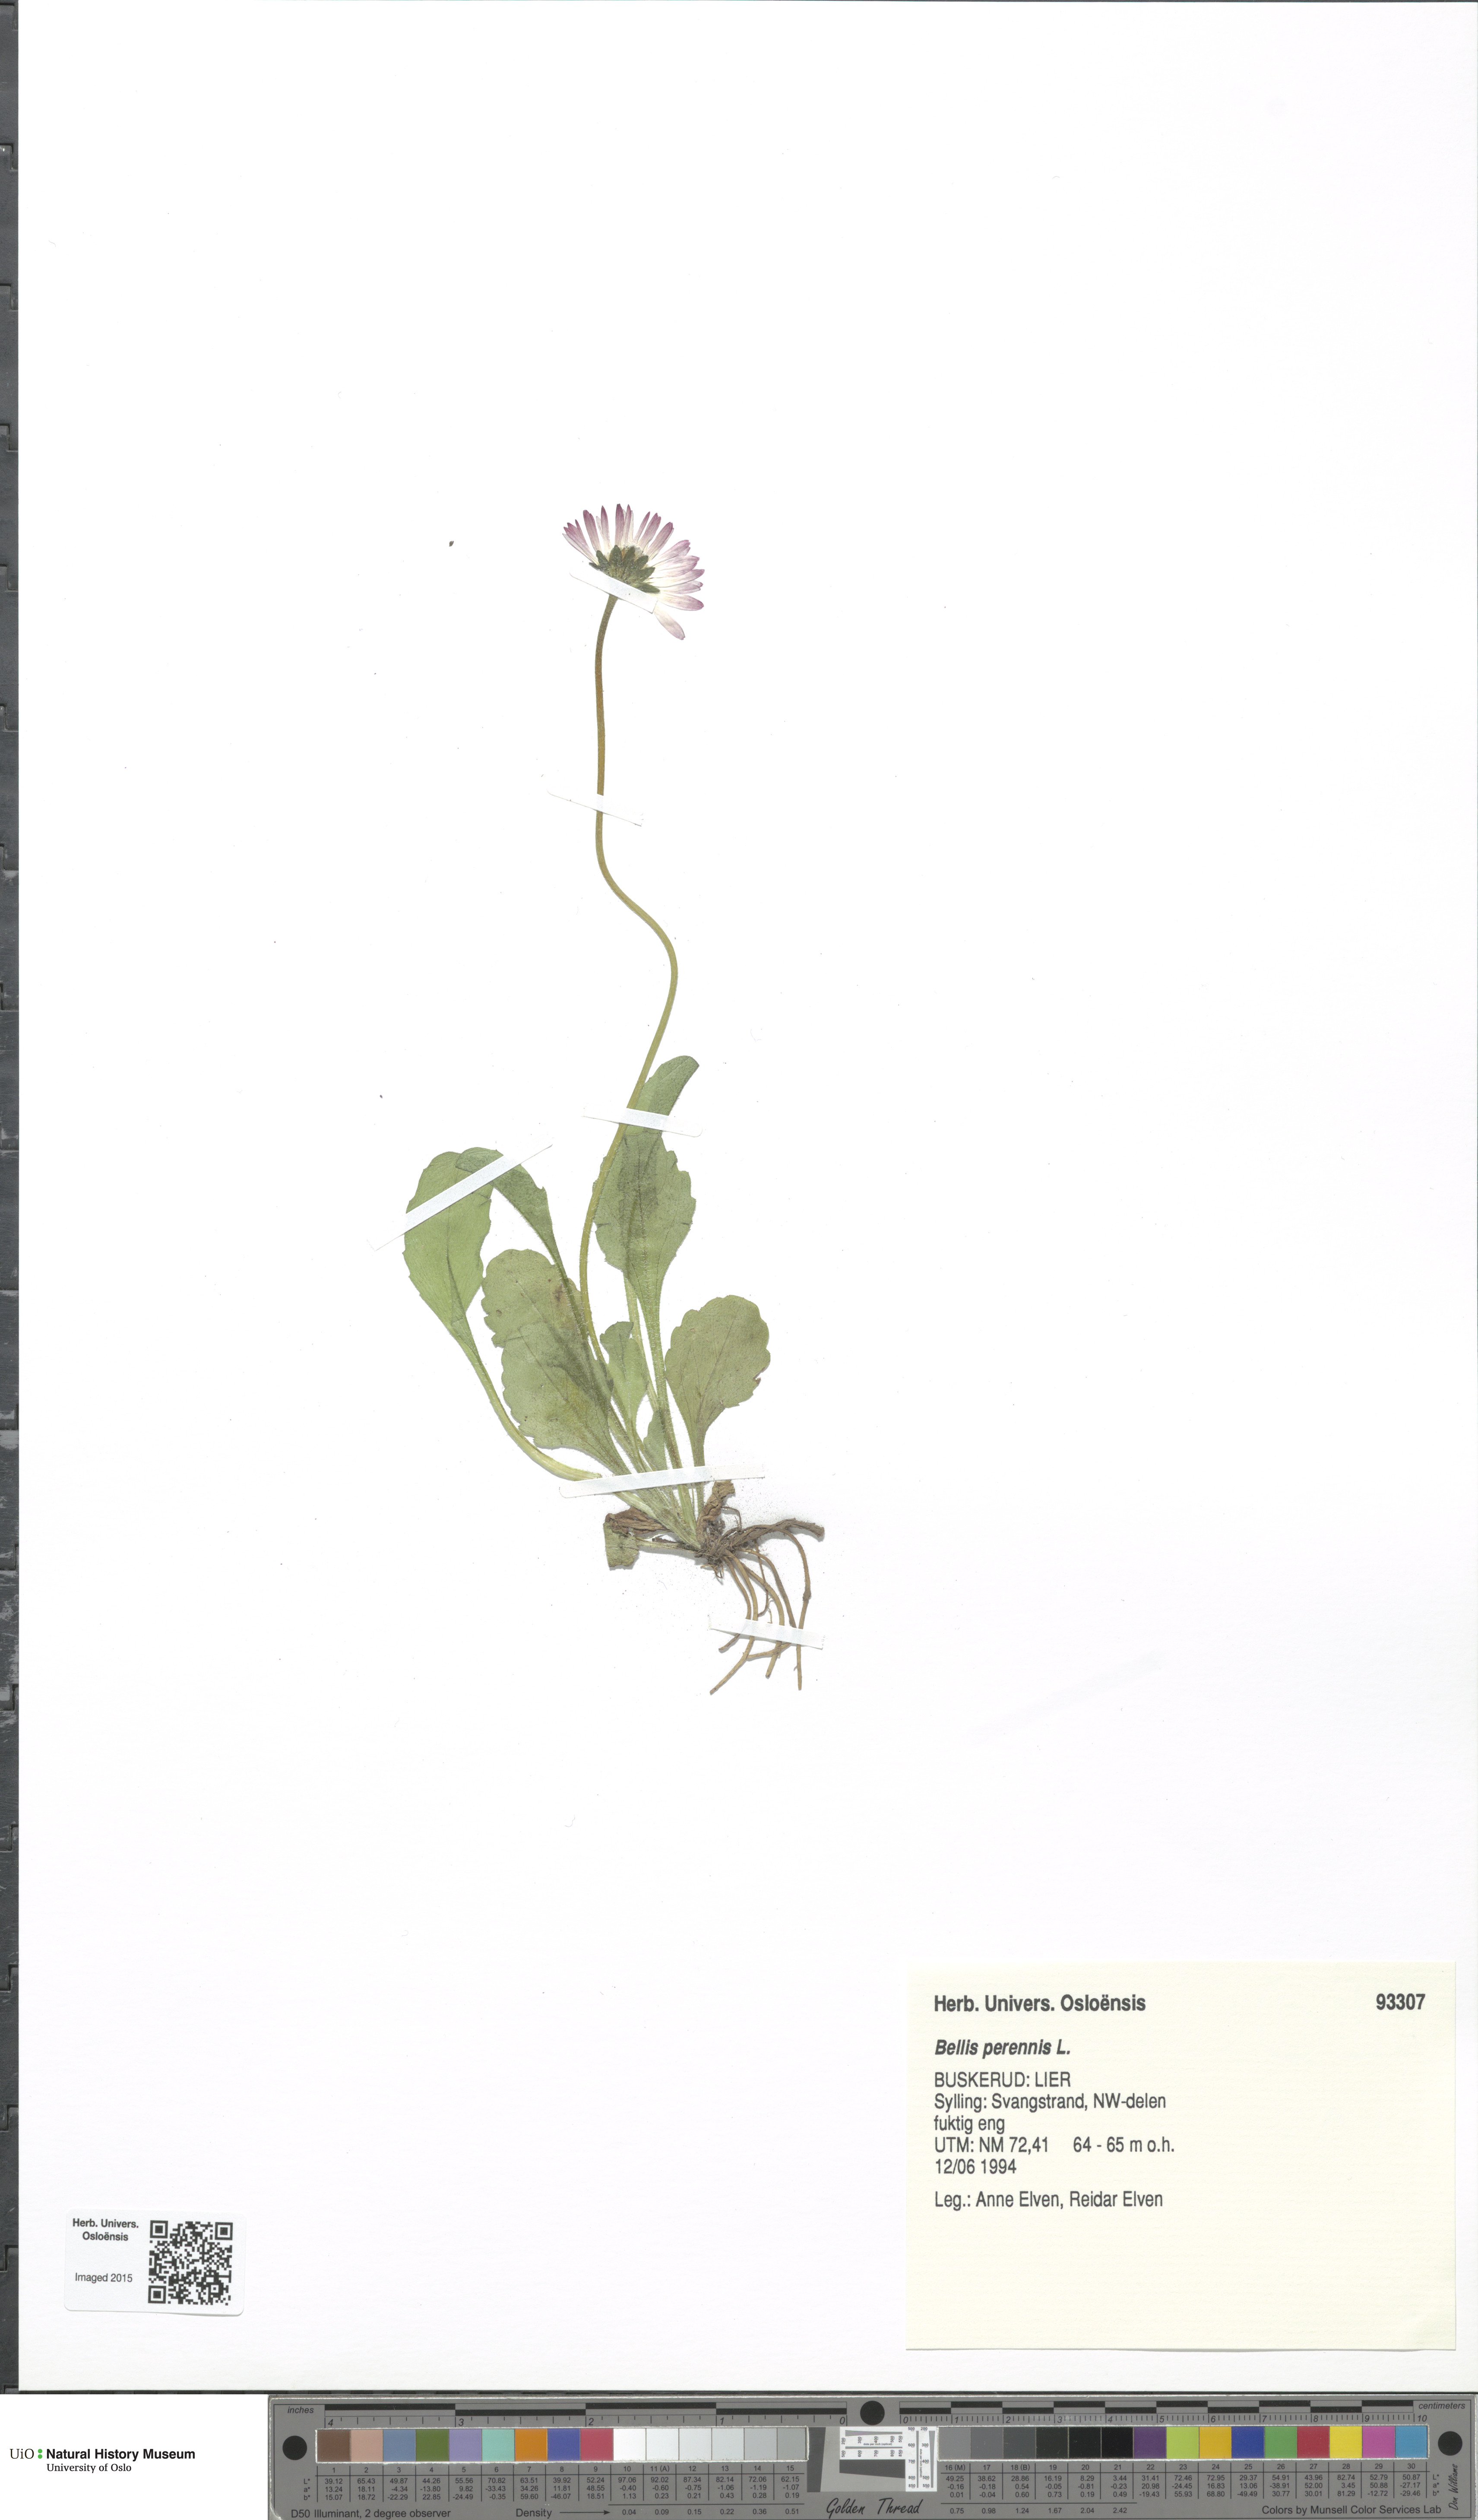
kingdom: Plantae
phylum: Tracheophyta
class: Magnoliopsida
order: Asterales
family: Asteraceae
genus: Bellis
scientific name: Bellis perennis
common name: Lawndaisy
